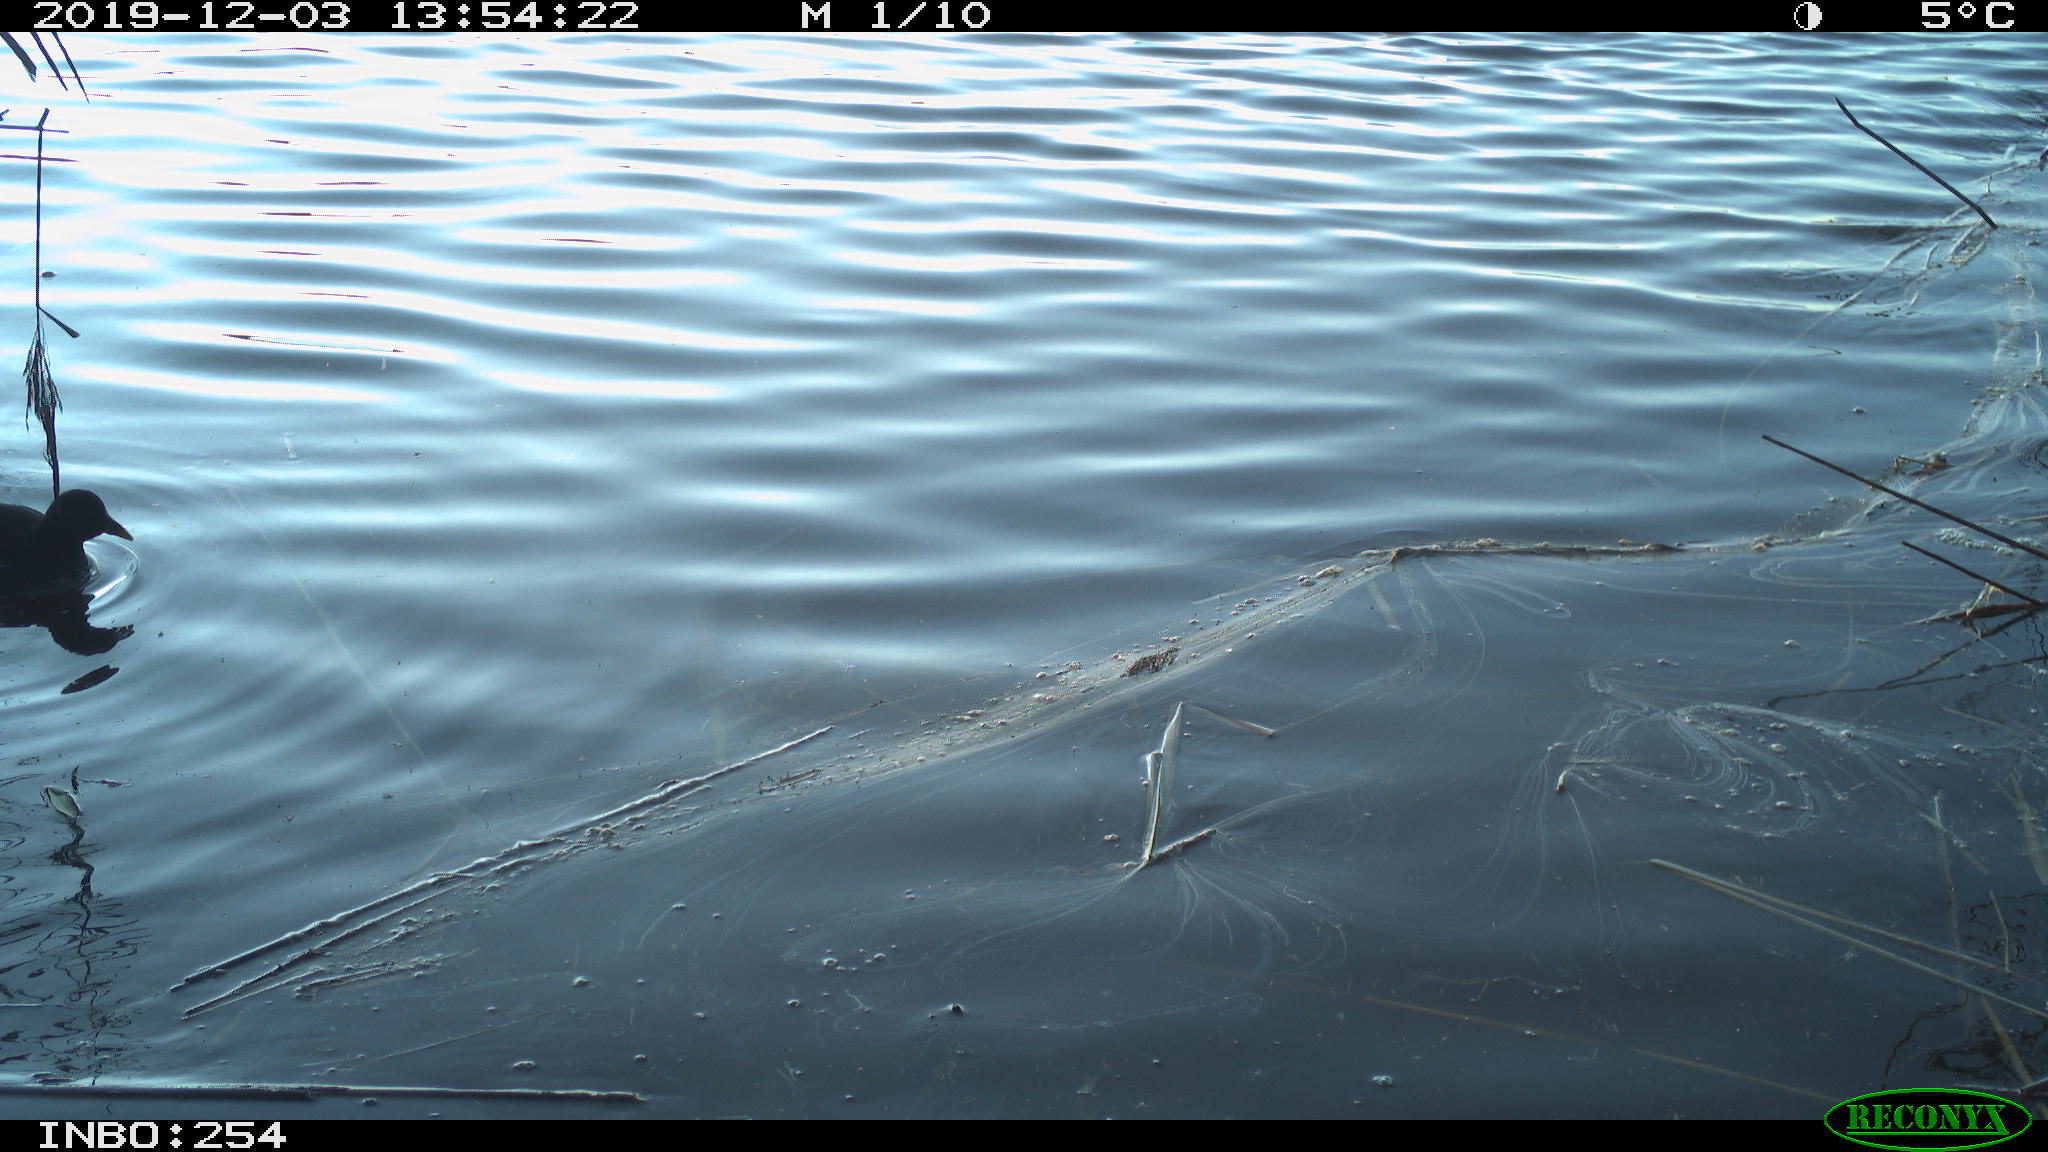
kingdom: Animalia
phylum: Chordata
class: Aves
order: Gruiformes
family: Rallidae
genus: Gallinula
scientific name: Gallinula chloropus
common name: Common moorhen
